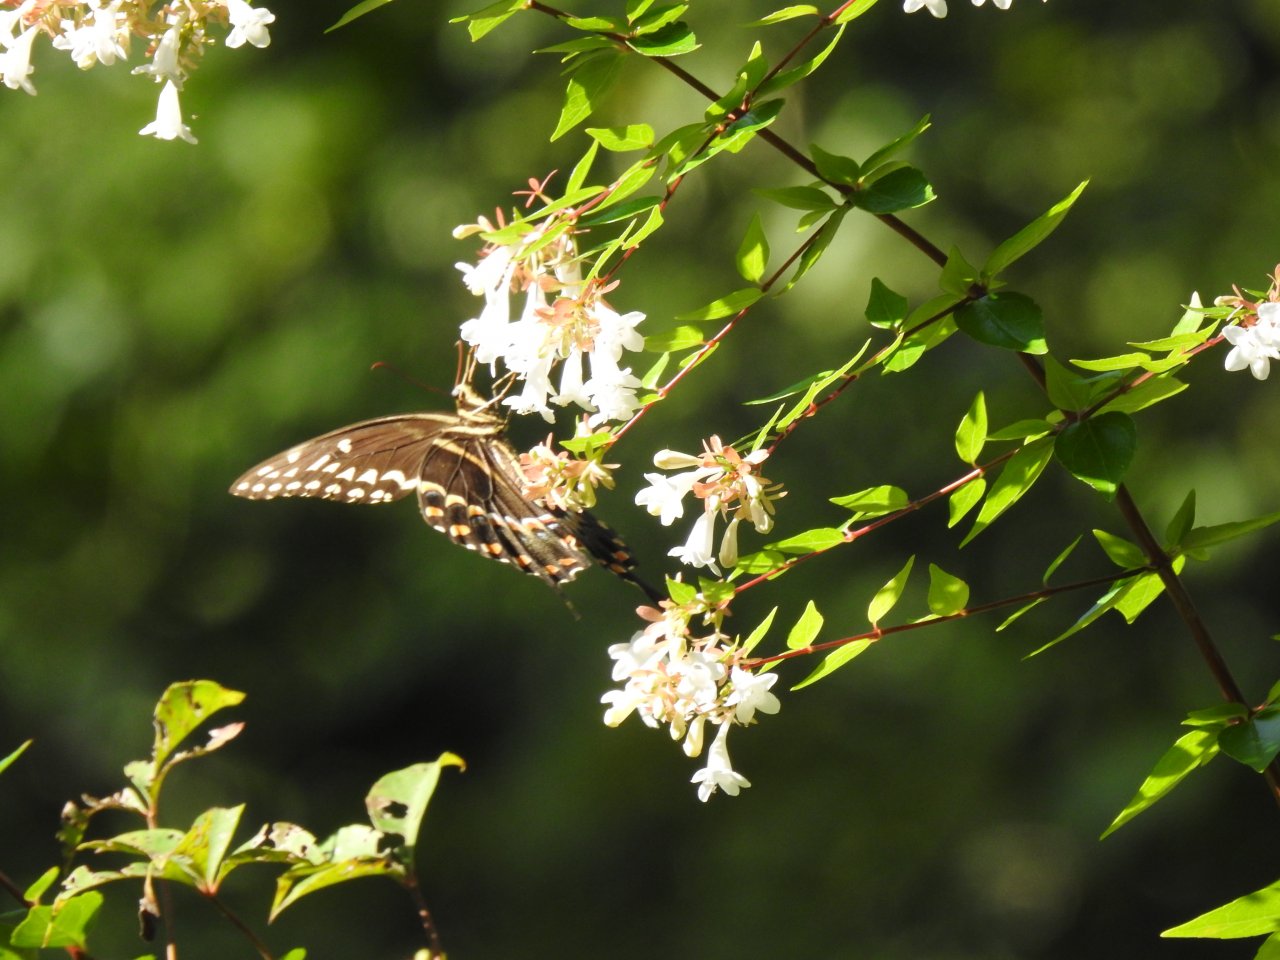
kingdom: Animalia
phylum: Arthropoda
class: Insecta
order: Lepidoptera
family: Papilionidae
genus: Pterourus
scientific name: Pterourus palamedes
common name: Palamedes Swallowtail
